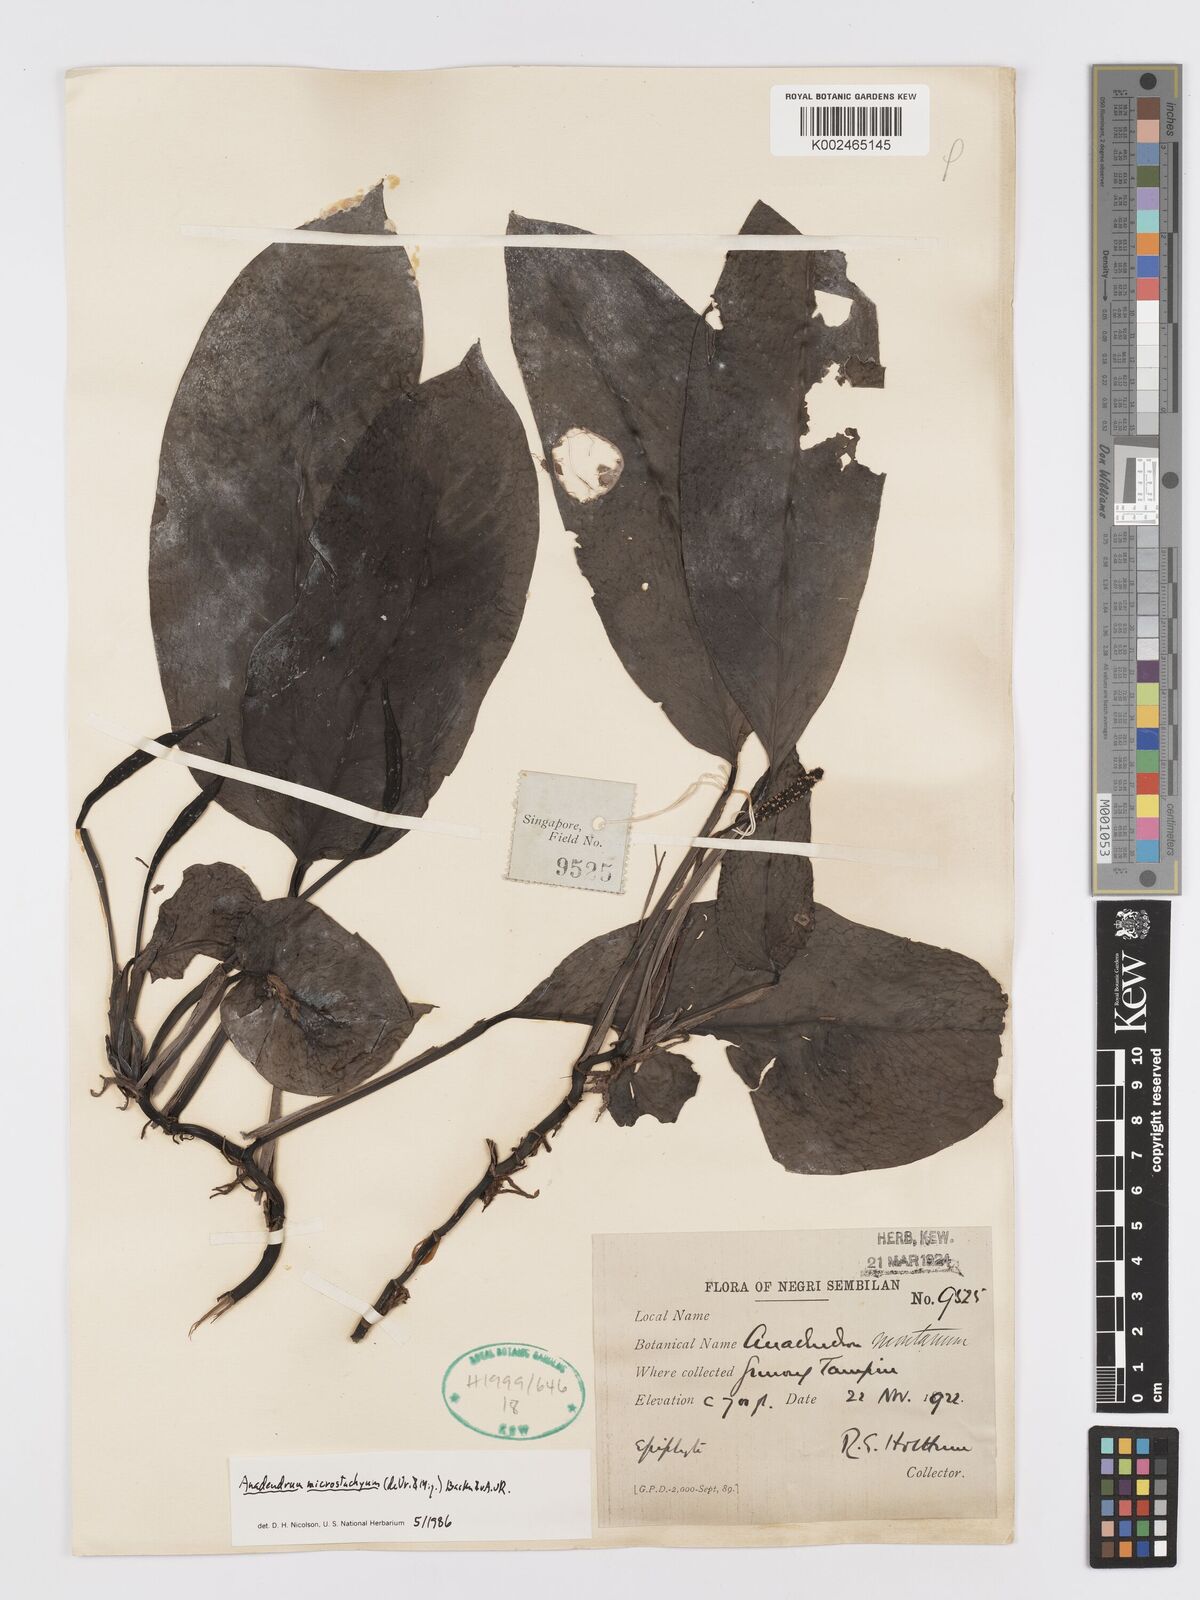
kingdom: Plantae
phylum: Tracheophyta
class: Liliopsida
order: Alismatales
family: Araceae
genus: Anadendrum
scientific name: Anadendrum microstachyum
